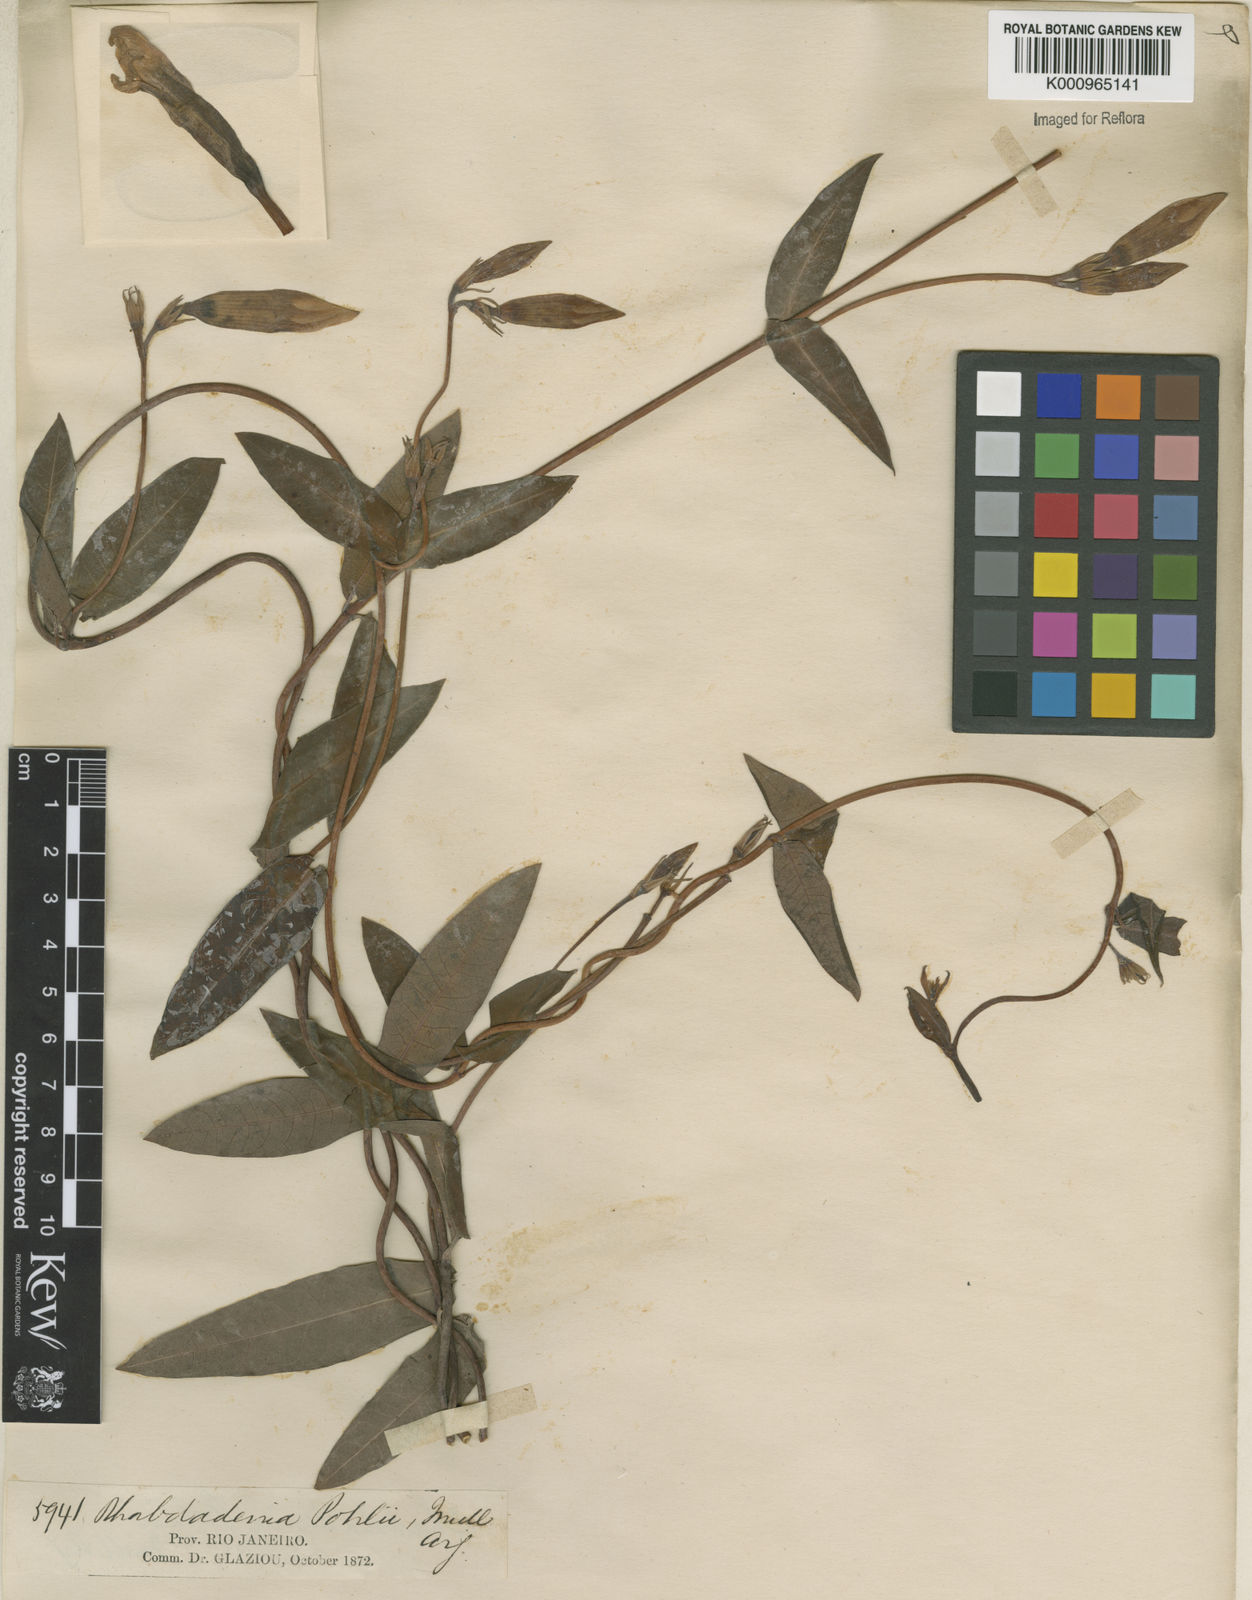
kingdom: Plantae
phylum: Tracheophyta
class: Magnoliopsida
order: Gentianales
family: Apocynaceae
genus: Rhabdadenia
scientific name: Rhabdadenia madida
